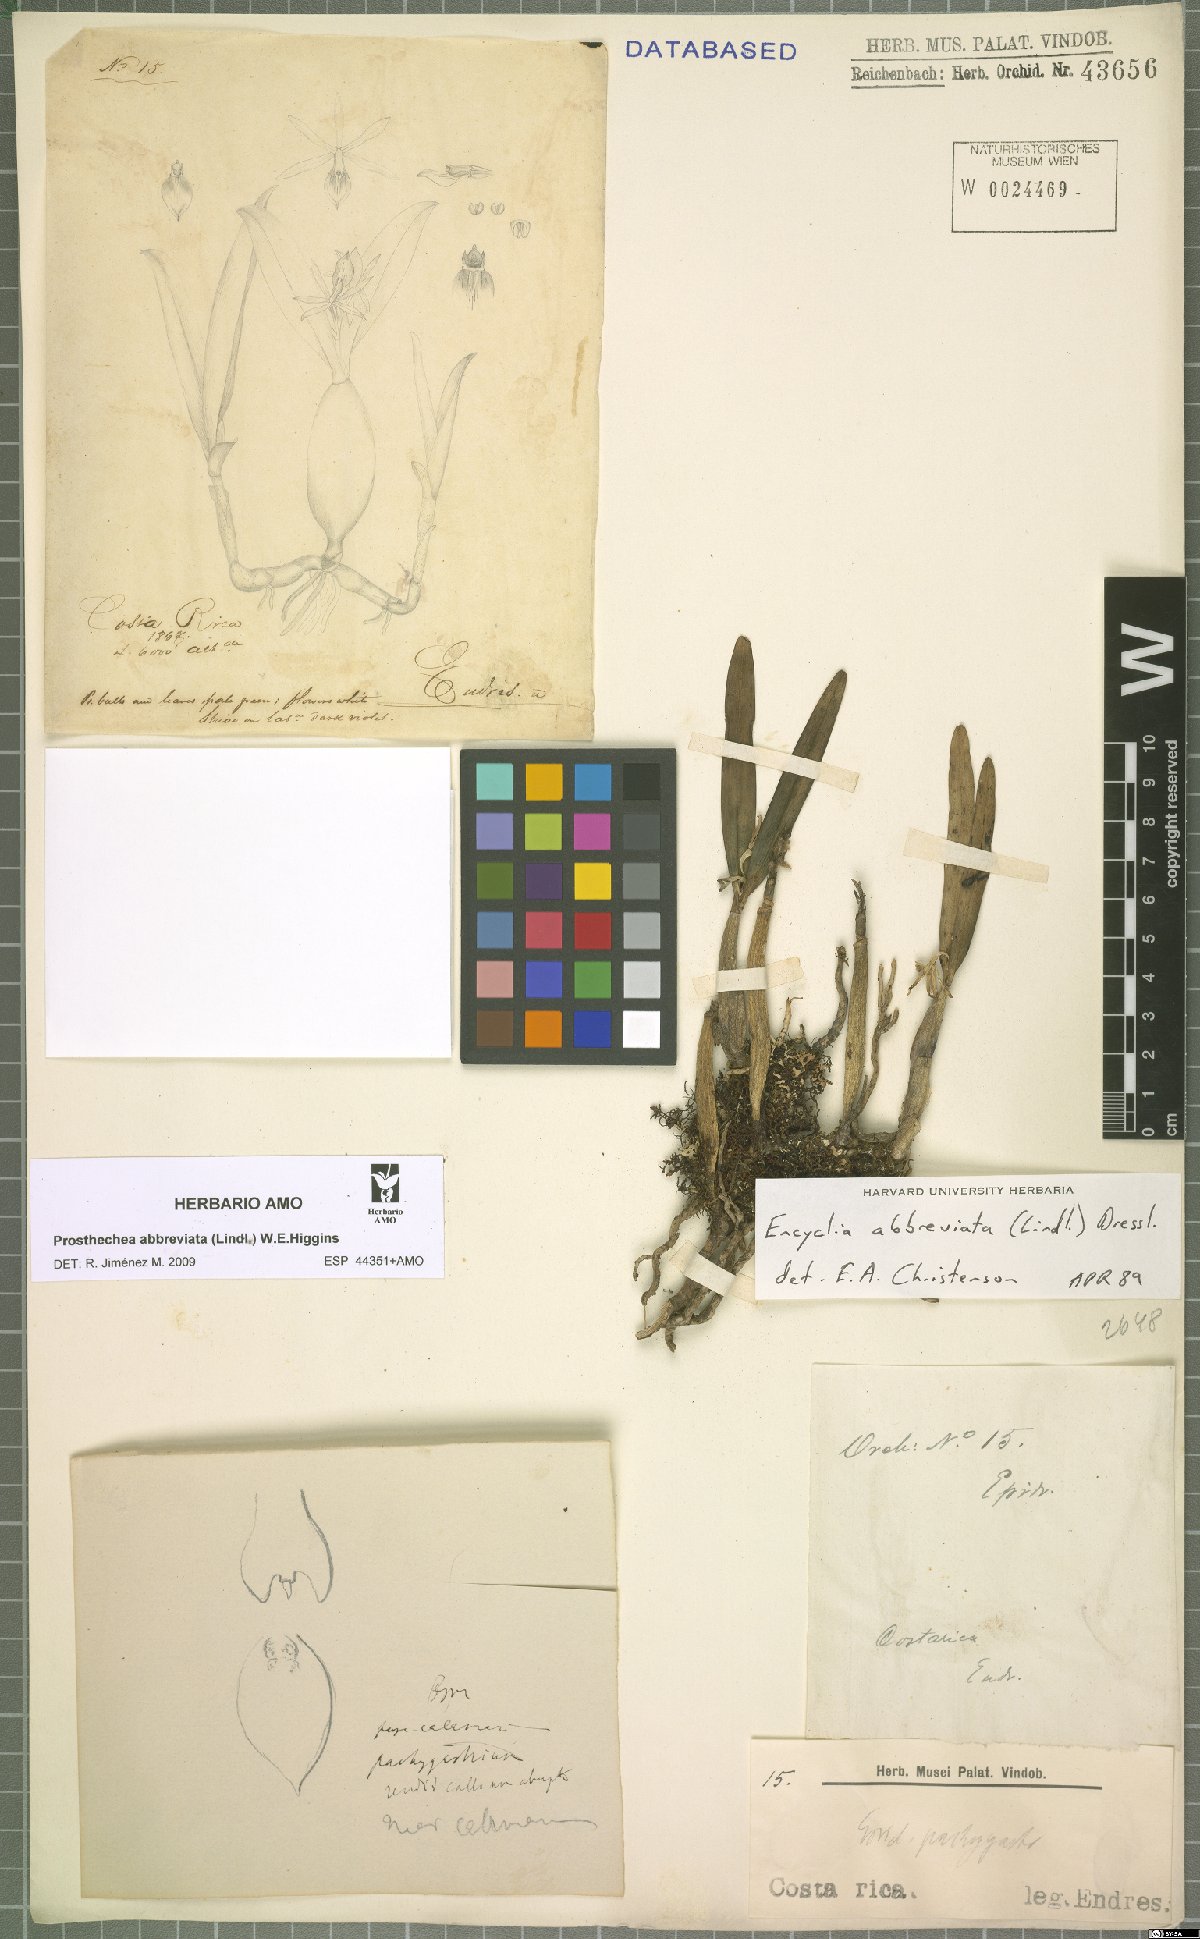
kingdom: Plantae
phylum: Tracheophyta
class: Liliopsida
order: Asparagales
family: Orchidaceae
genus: Prosthechea
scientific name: Prosthechea abbreviata
